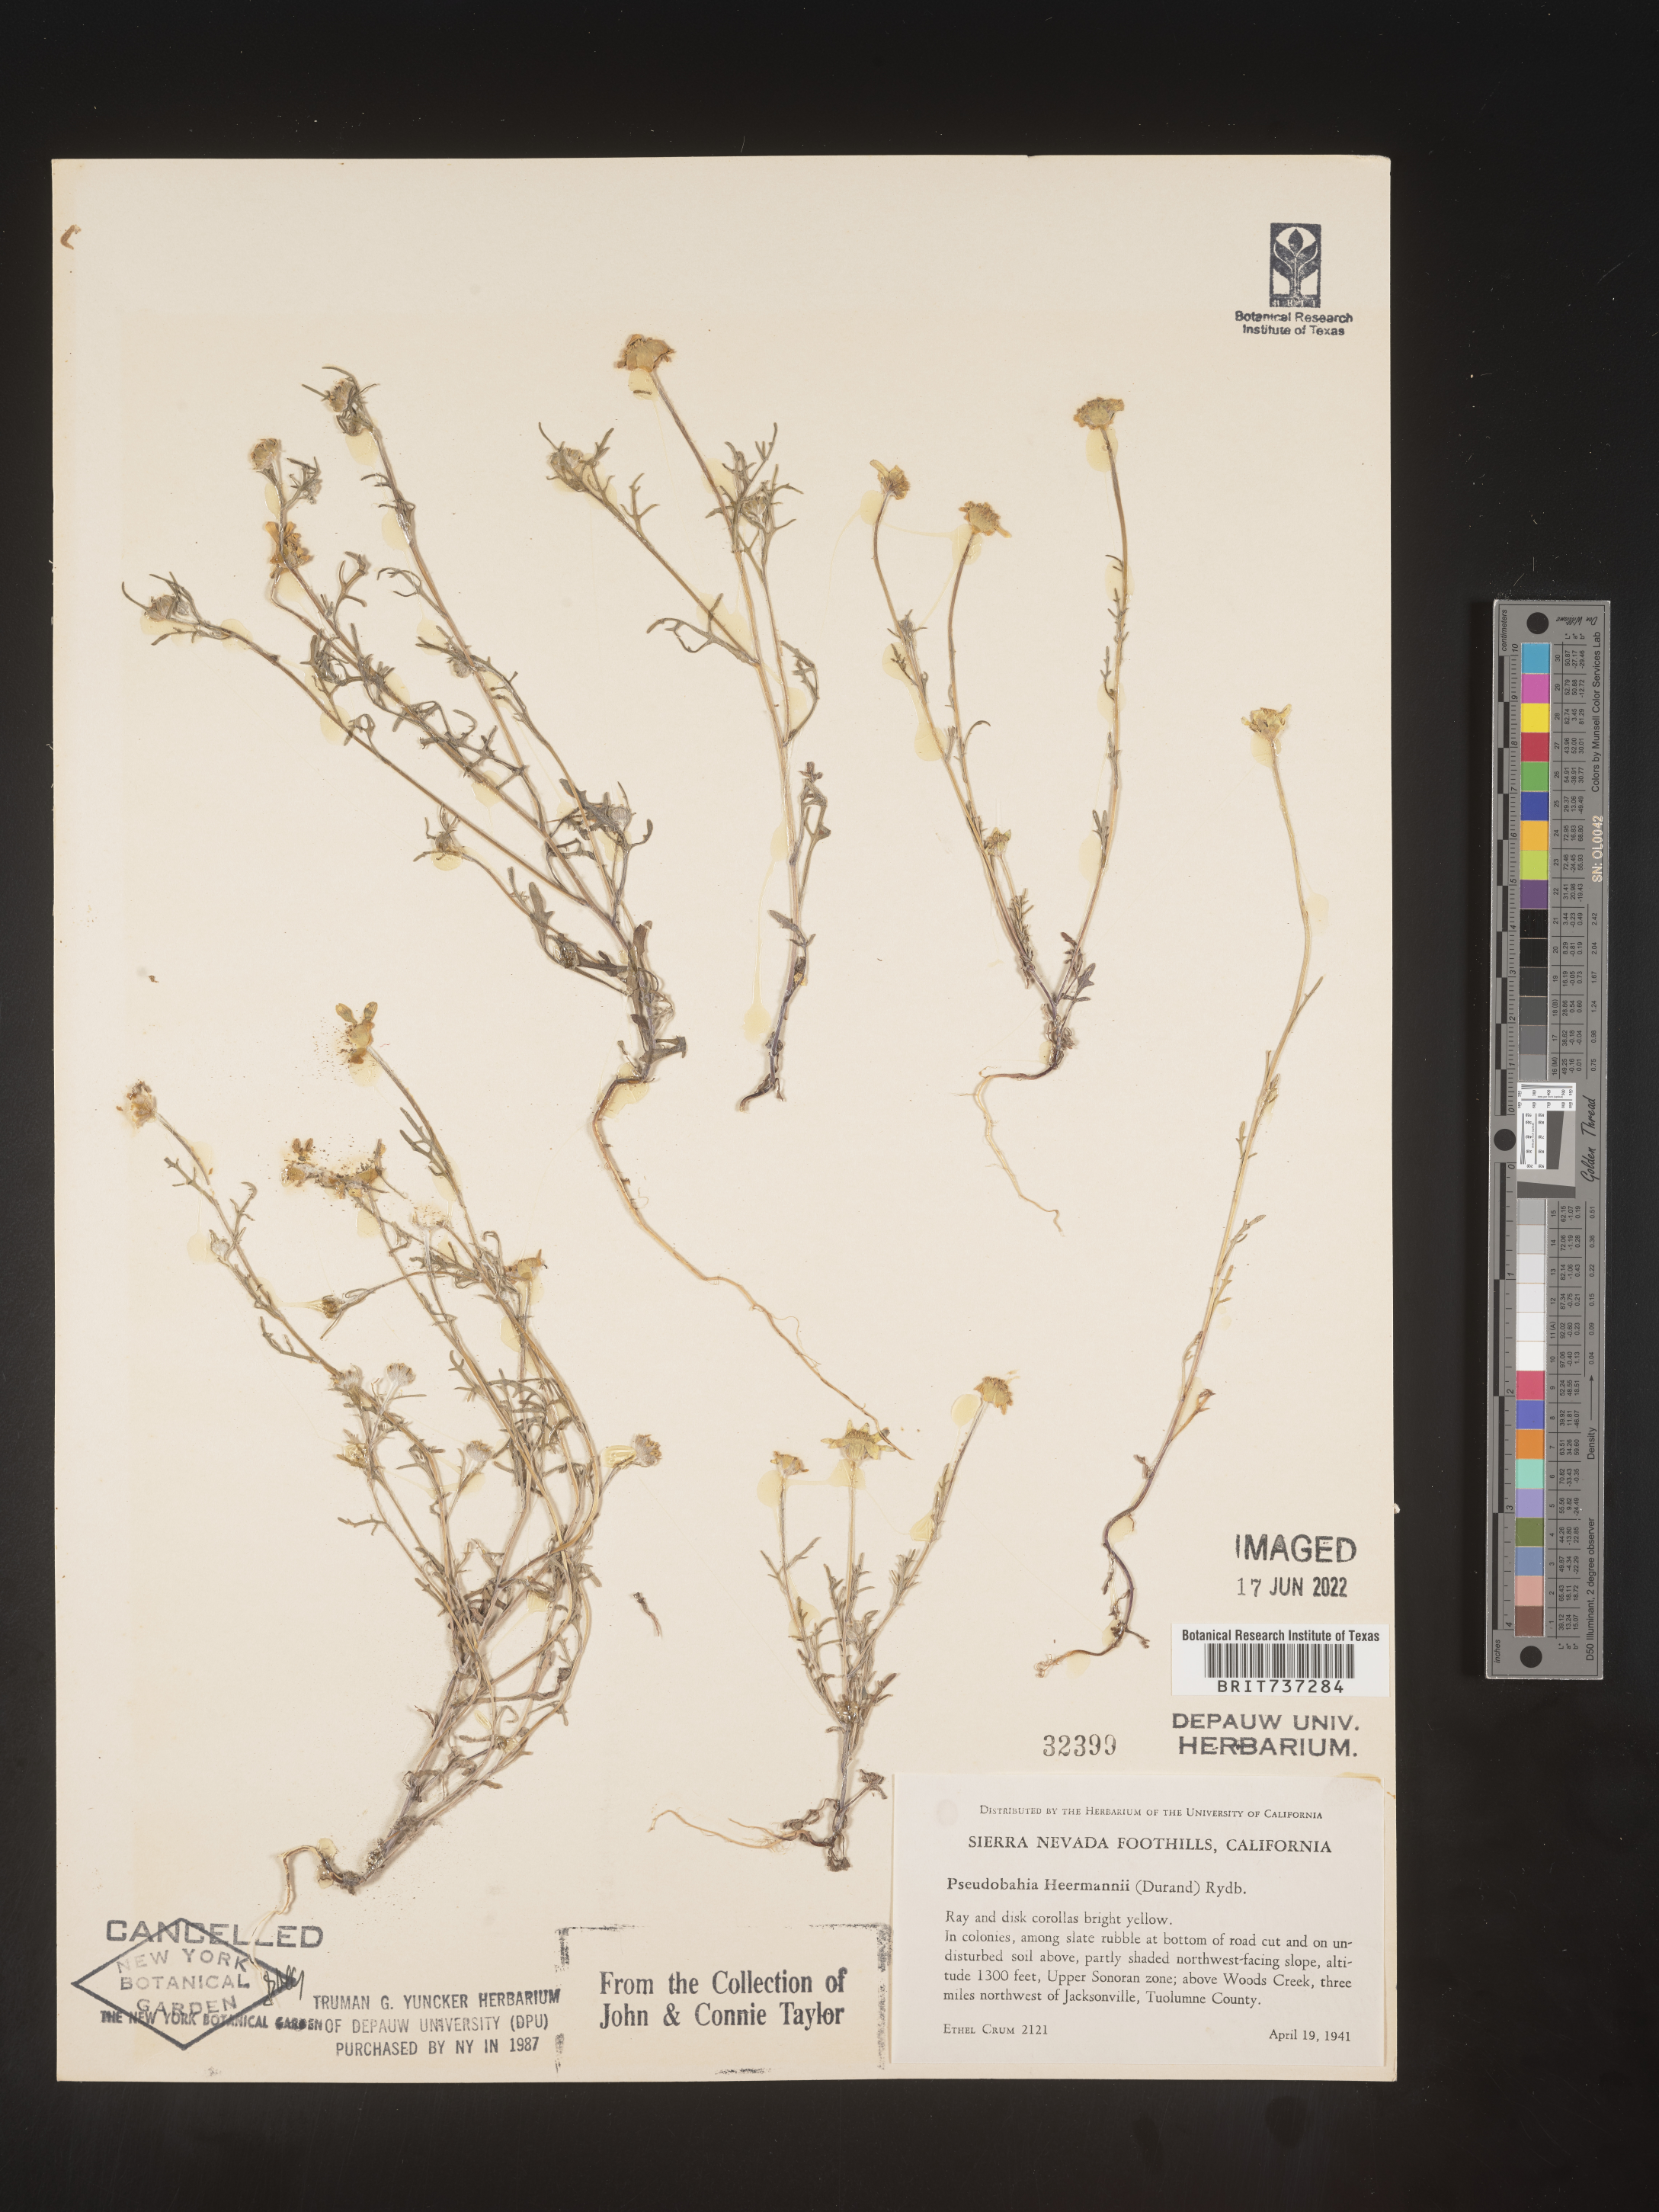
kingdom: Plantae
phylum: Tracheophyta
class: Magnoliopsida
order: Asterales
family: Asteraceae
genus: Pseudobahia
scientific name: Pseudobahia
